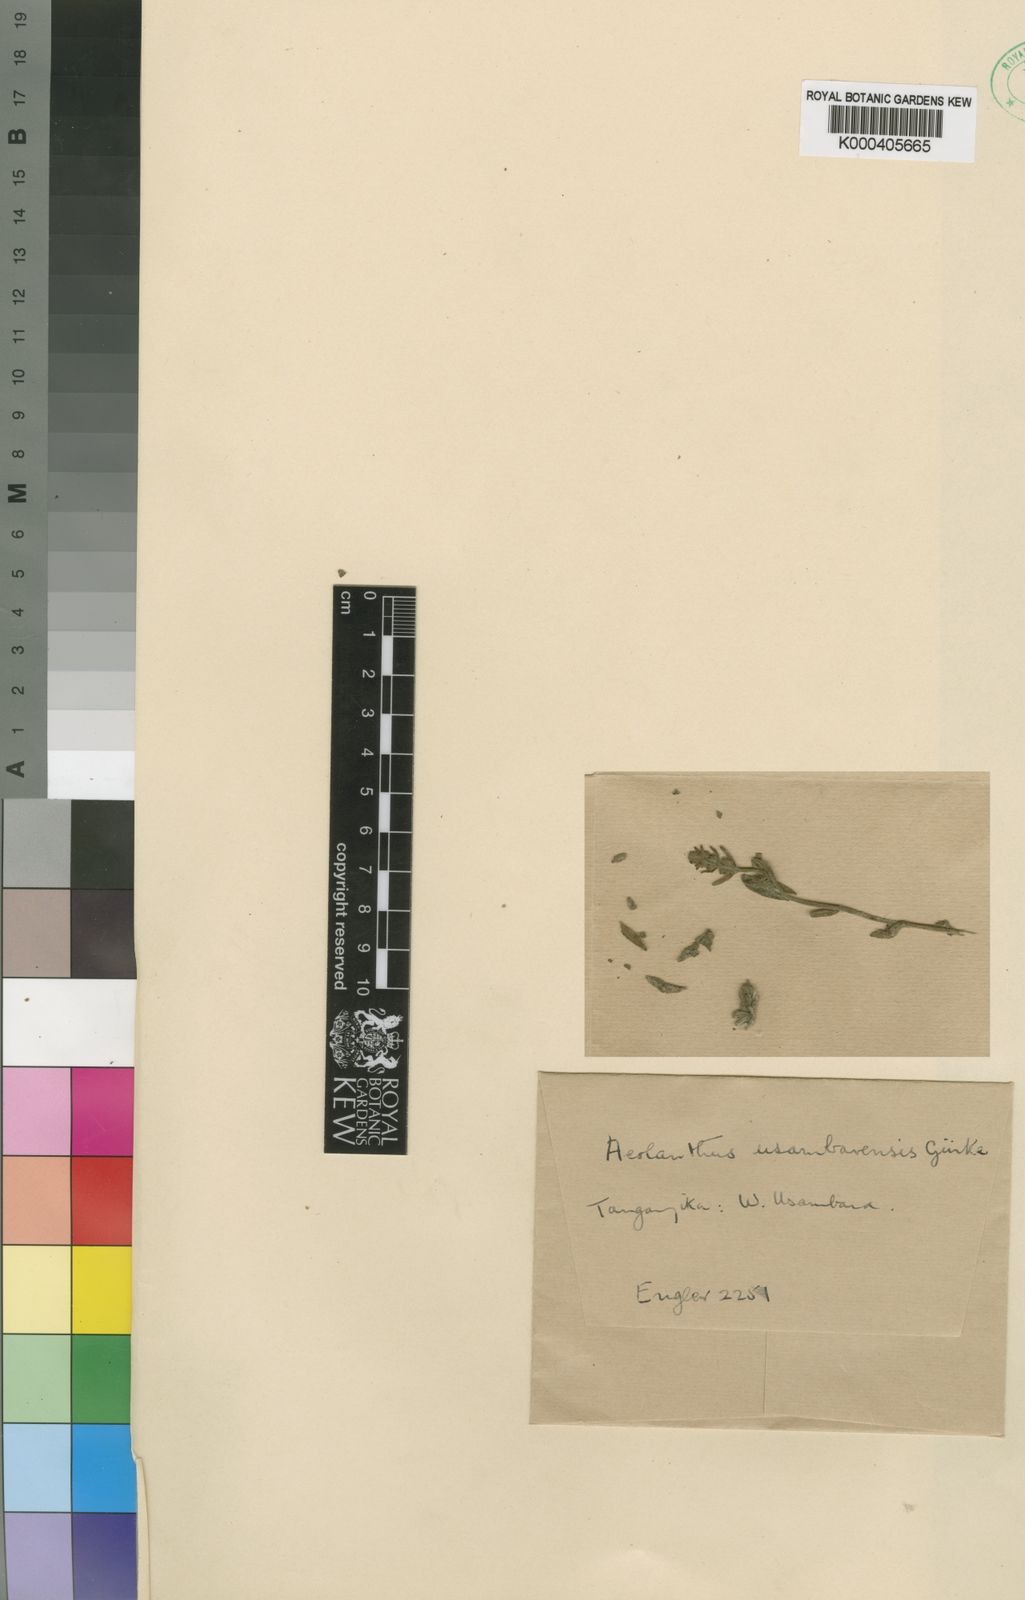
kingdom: Plantae
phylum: Tracheophyta
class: Magnoliopsida
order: Lamiales
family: Lamiaceae
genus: Aeollanthus
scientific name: Aeollanthus repens
